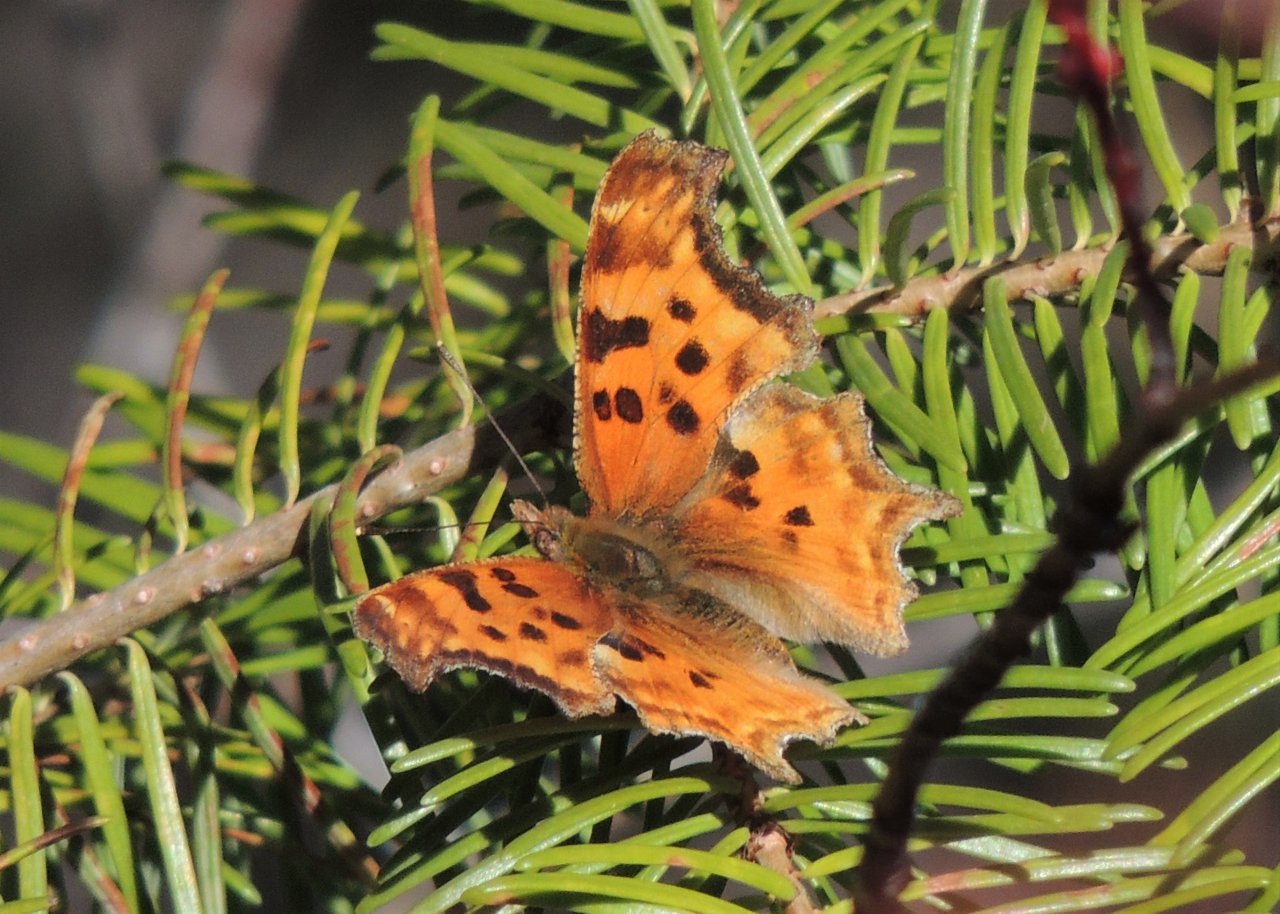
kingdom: Animalia
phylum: Arthropoda
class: Insecta
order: Lepidoptera
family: Nymphalidae
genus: Polygonia
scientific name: Polygonia satyrus
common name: Satyr Comma
